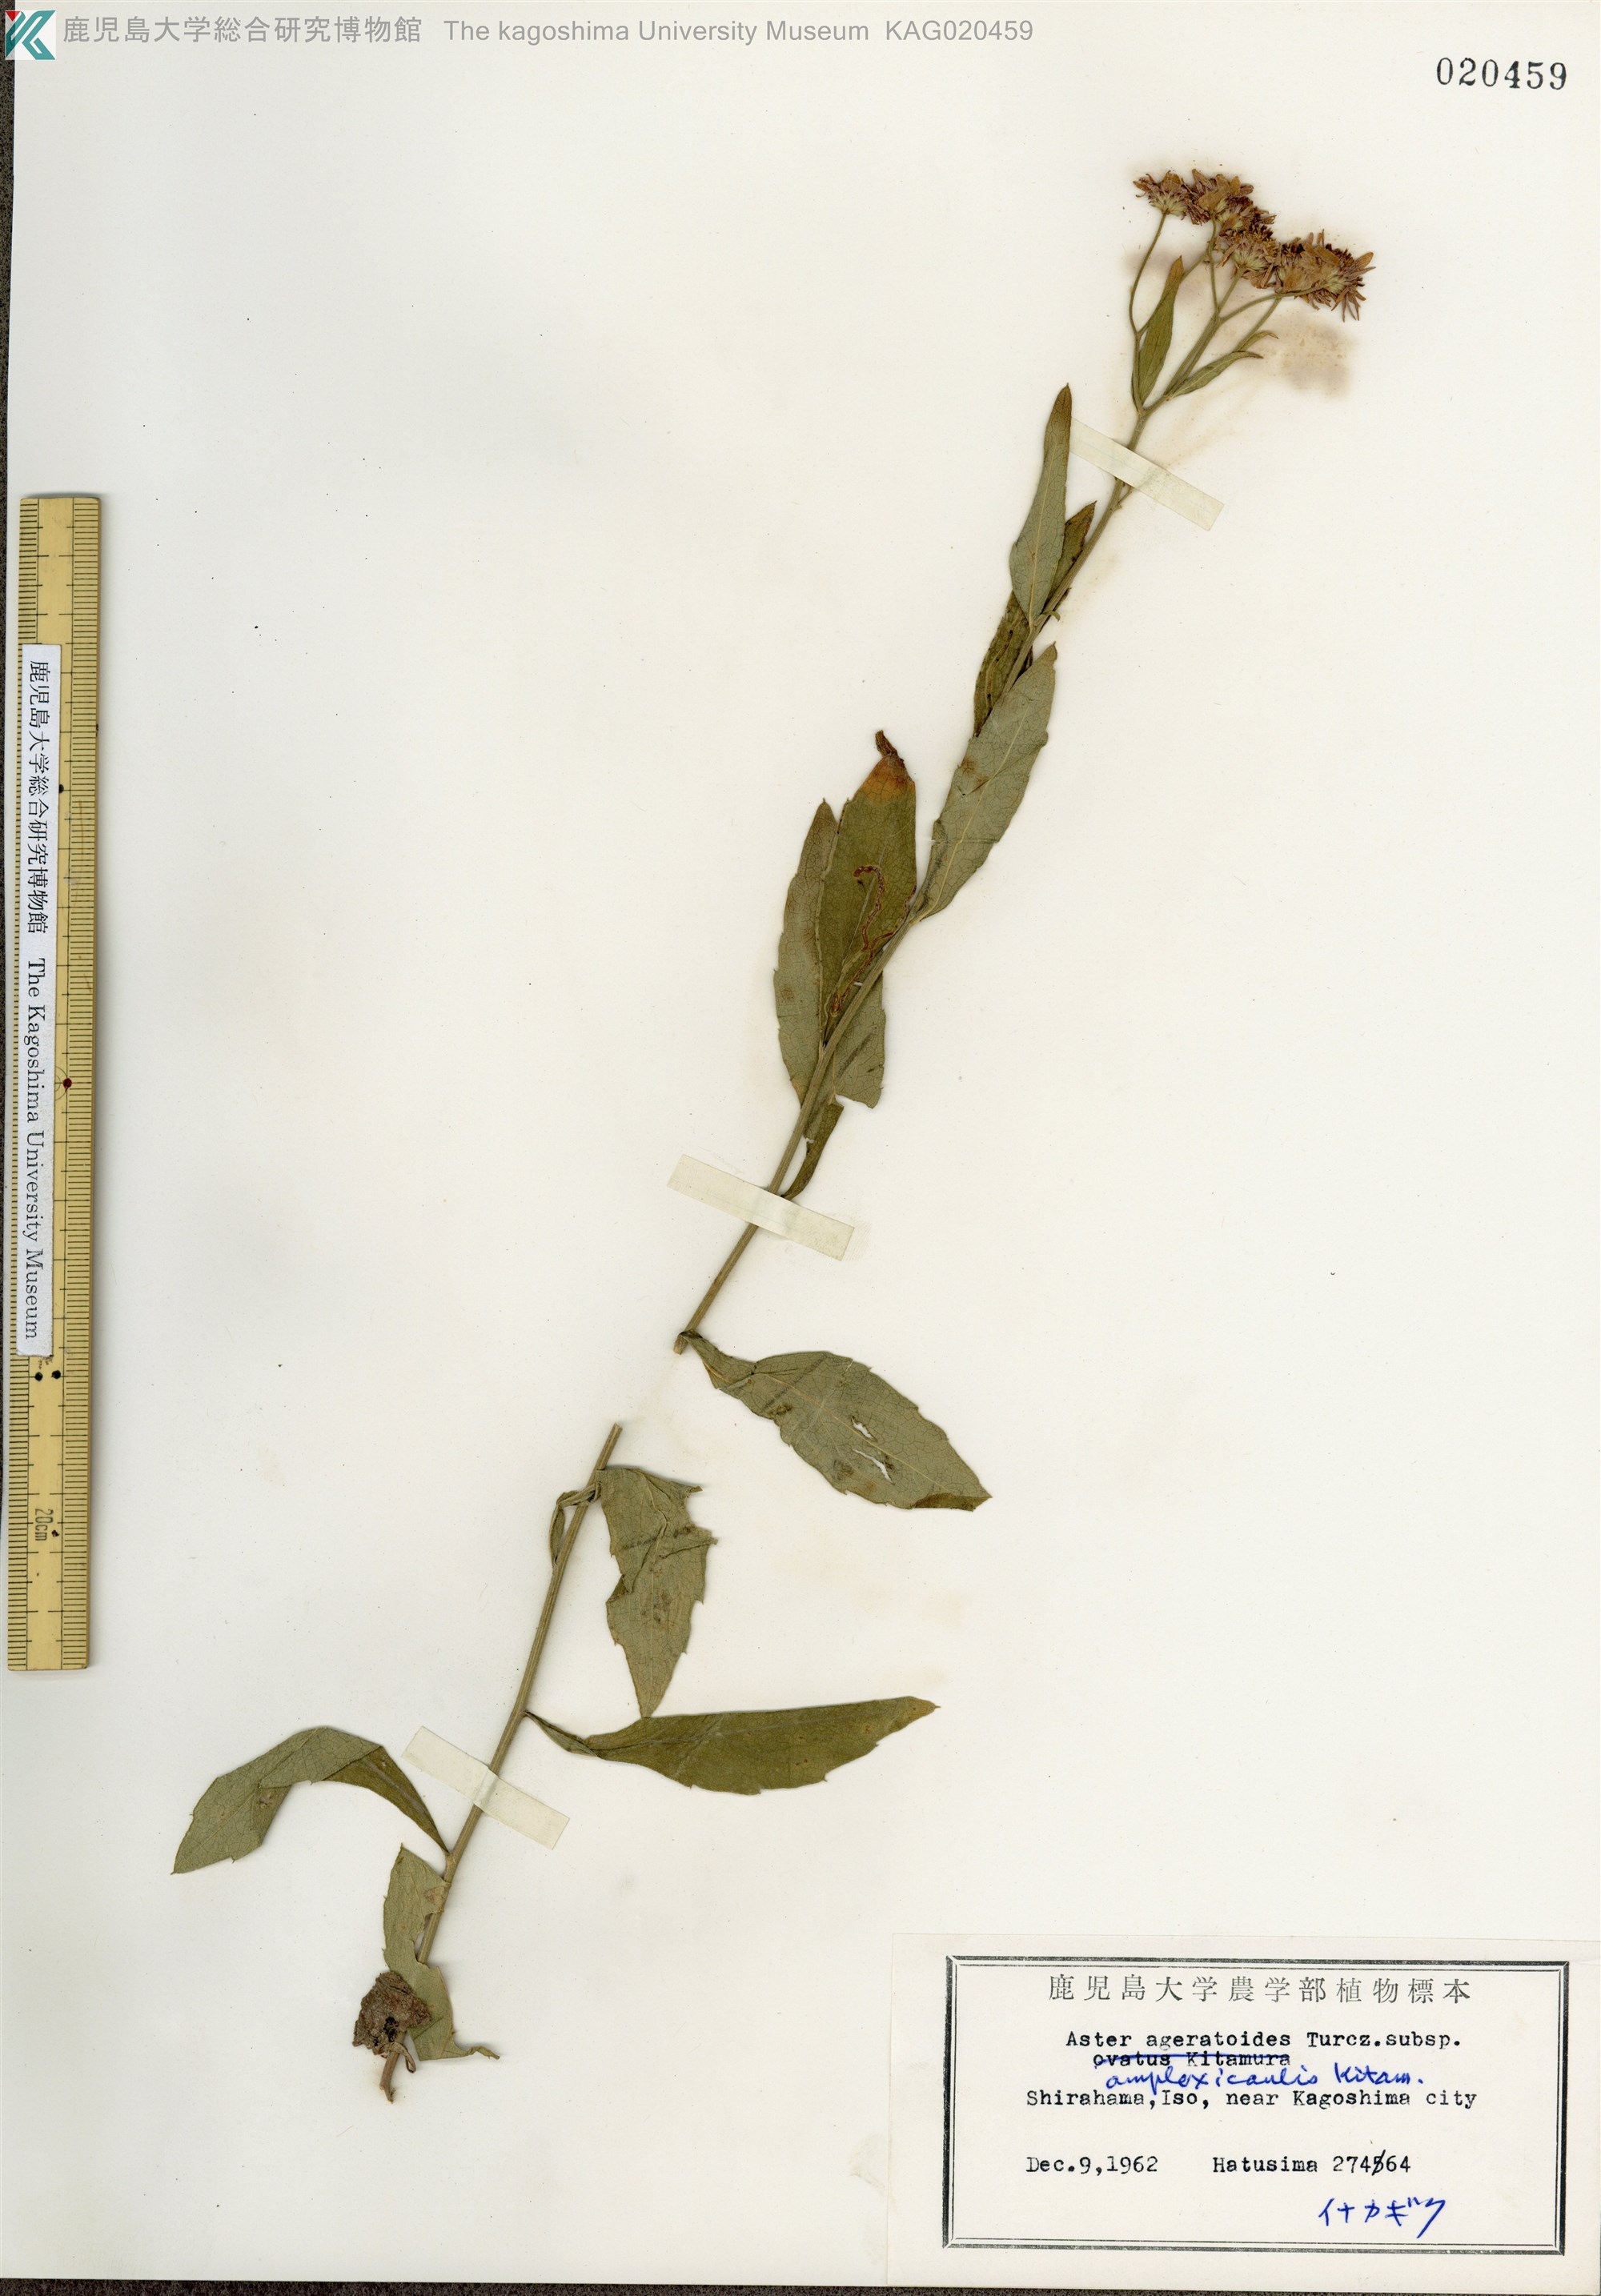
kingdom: Plantae
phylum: Tracheophyta
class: Magnoliopsida
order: Asterales
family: Asteraceae
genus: Aster
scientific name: Aster satsumensis
